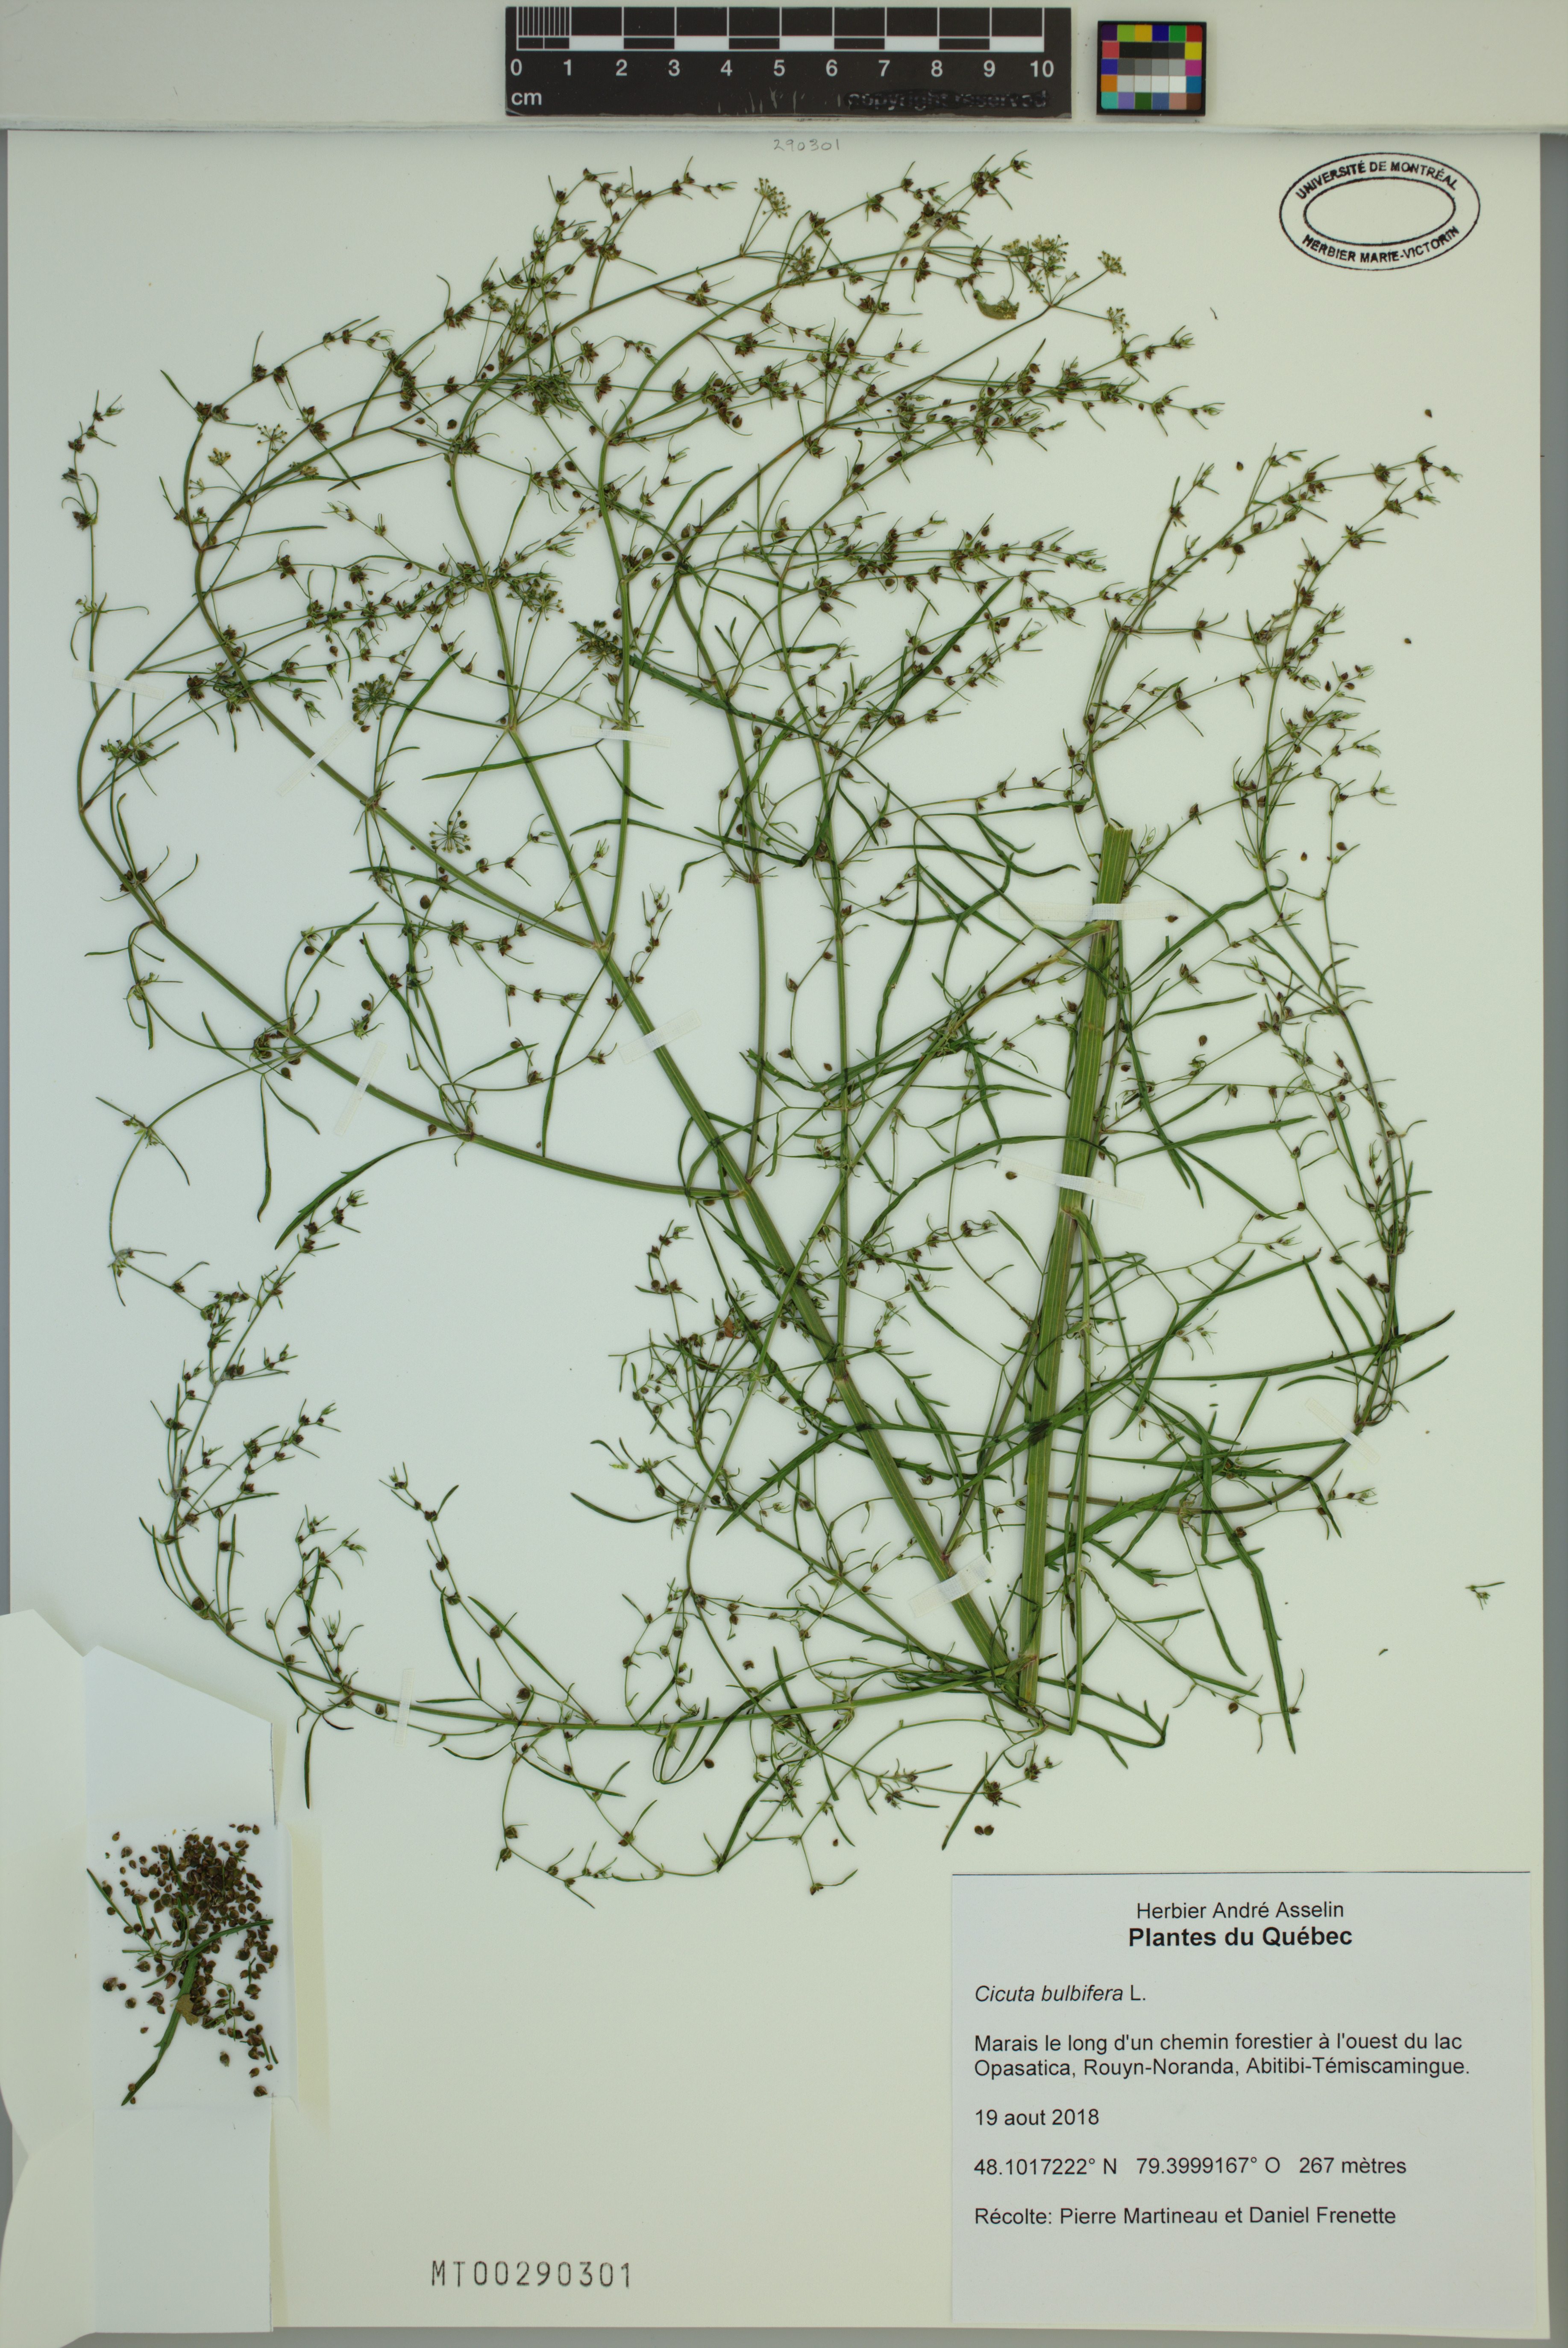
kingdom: Plantae
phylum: Tracheophyta
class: Magnoliopsida
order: Apiales
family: Apiaceae
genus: Cicuta
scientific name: Cicuta bulbifera
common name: Bulb-bearing water-hemlock
